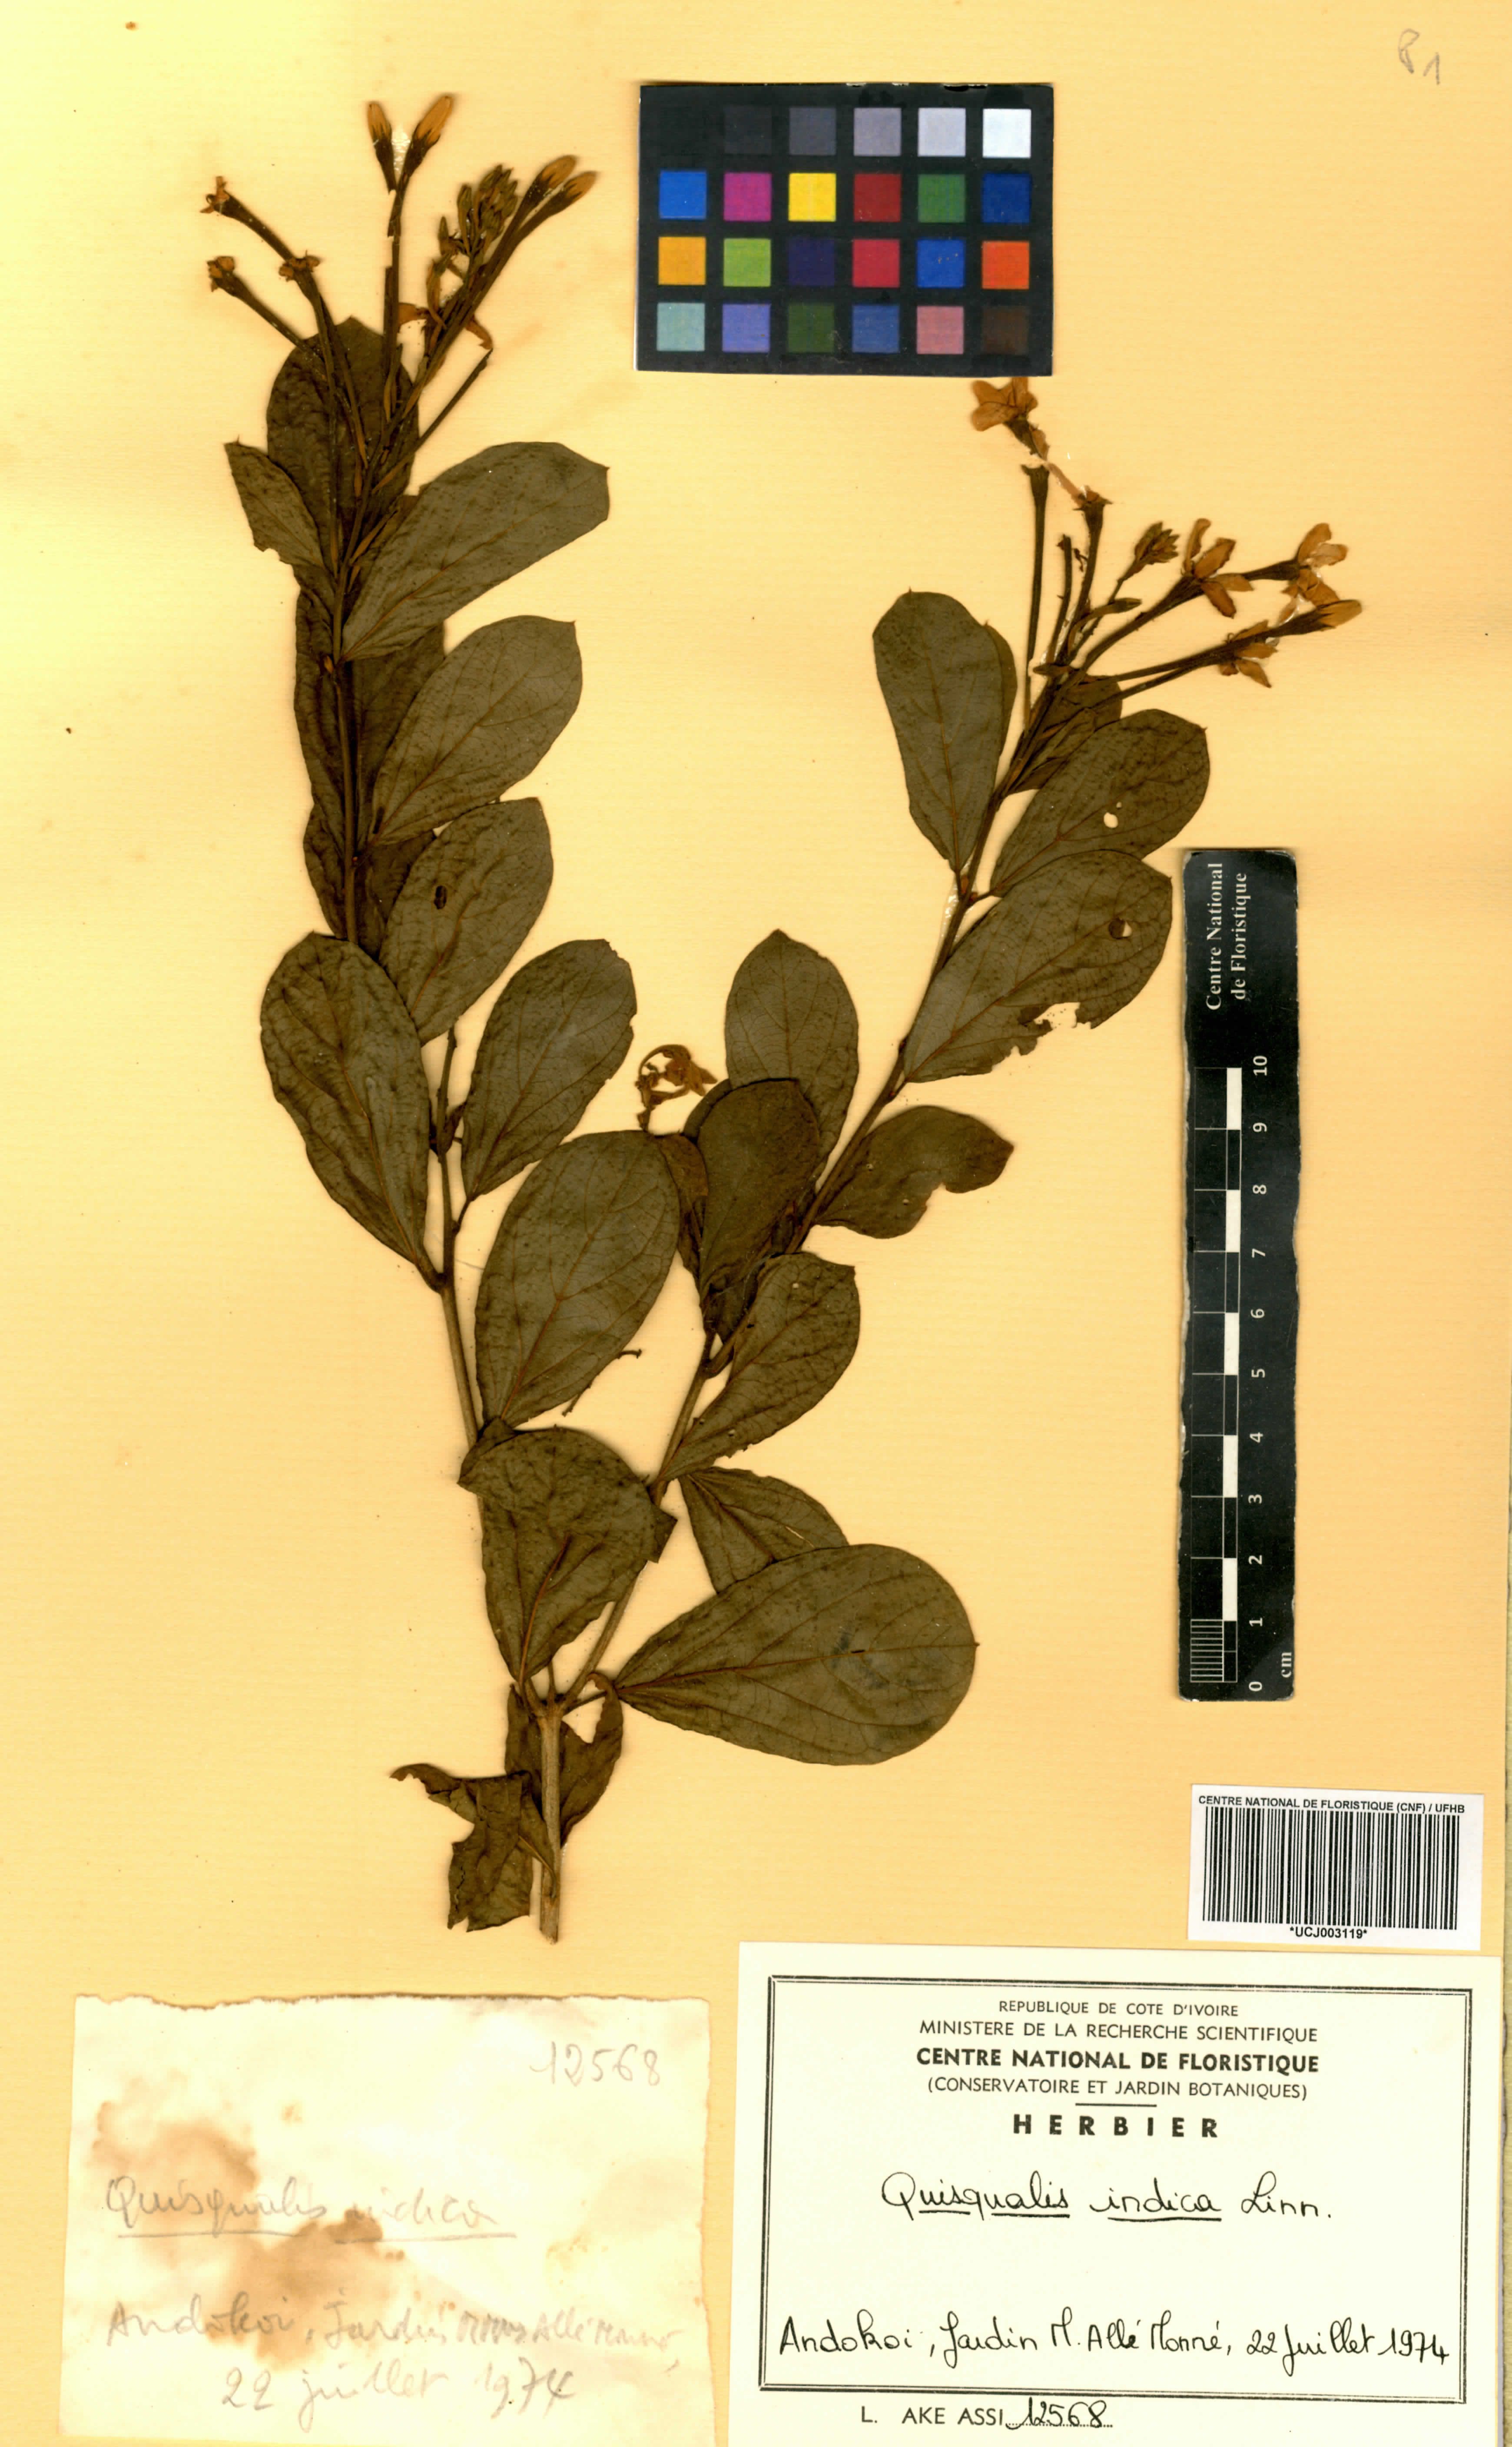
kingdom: Plantae
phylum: Tracheophyta
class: Magnoliopsida
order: Myrtales
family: Combretaceae
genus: Combretum
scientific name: Combretum indicum
